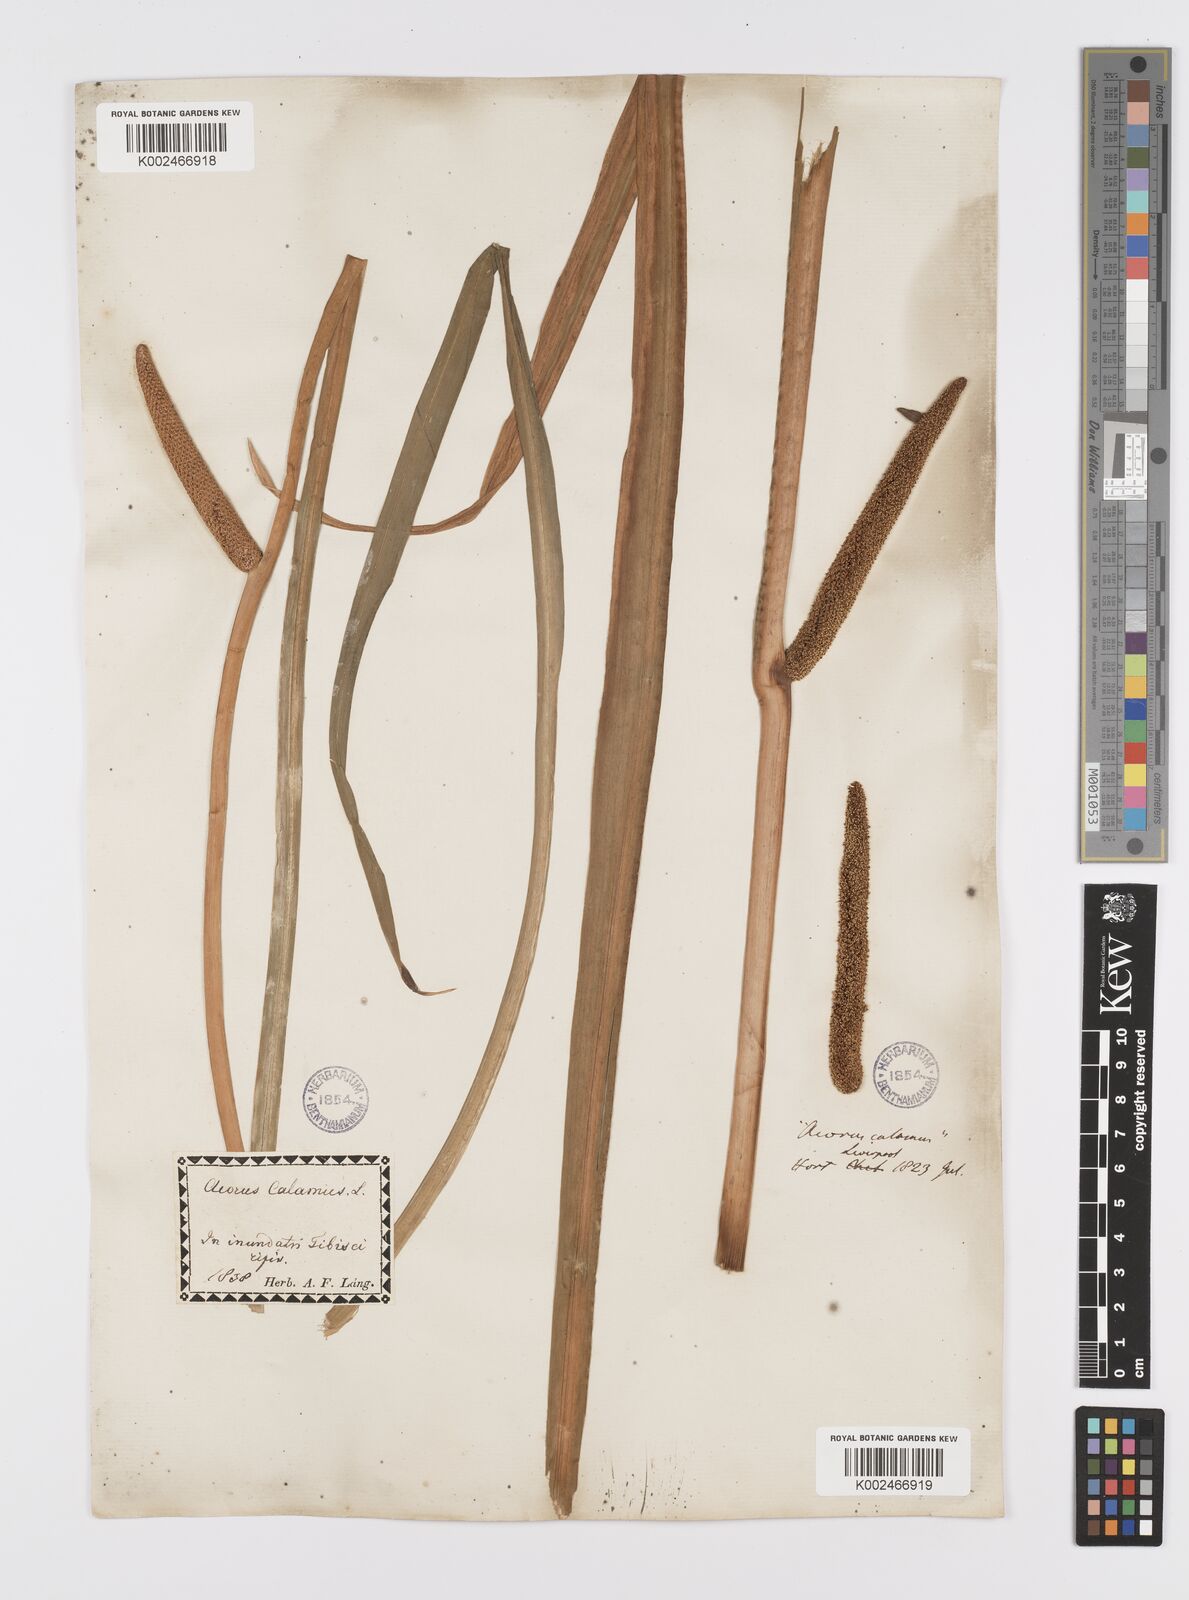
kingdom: Plantae
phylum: Tracheophyta
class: Liliopsida
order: Acorales
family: Acoraceae
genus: Acorus
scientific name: Acorus calamus
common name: Sweet-flag
